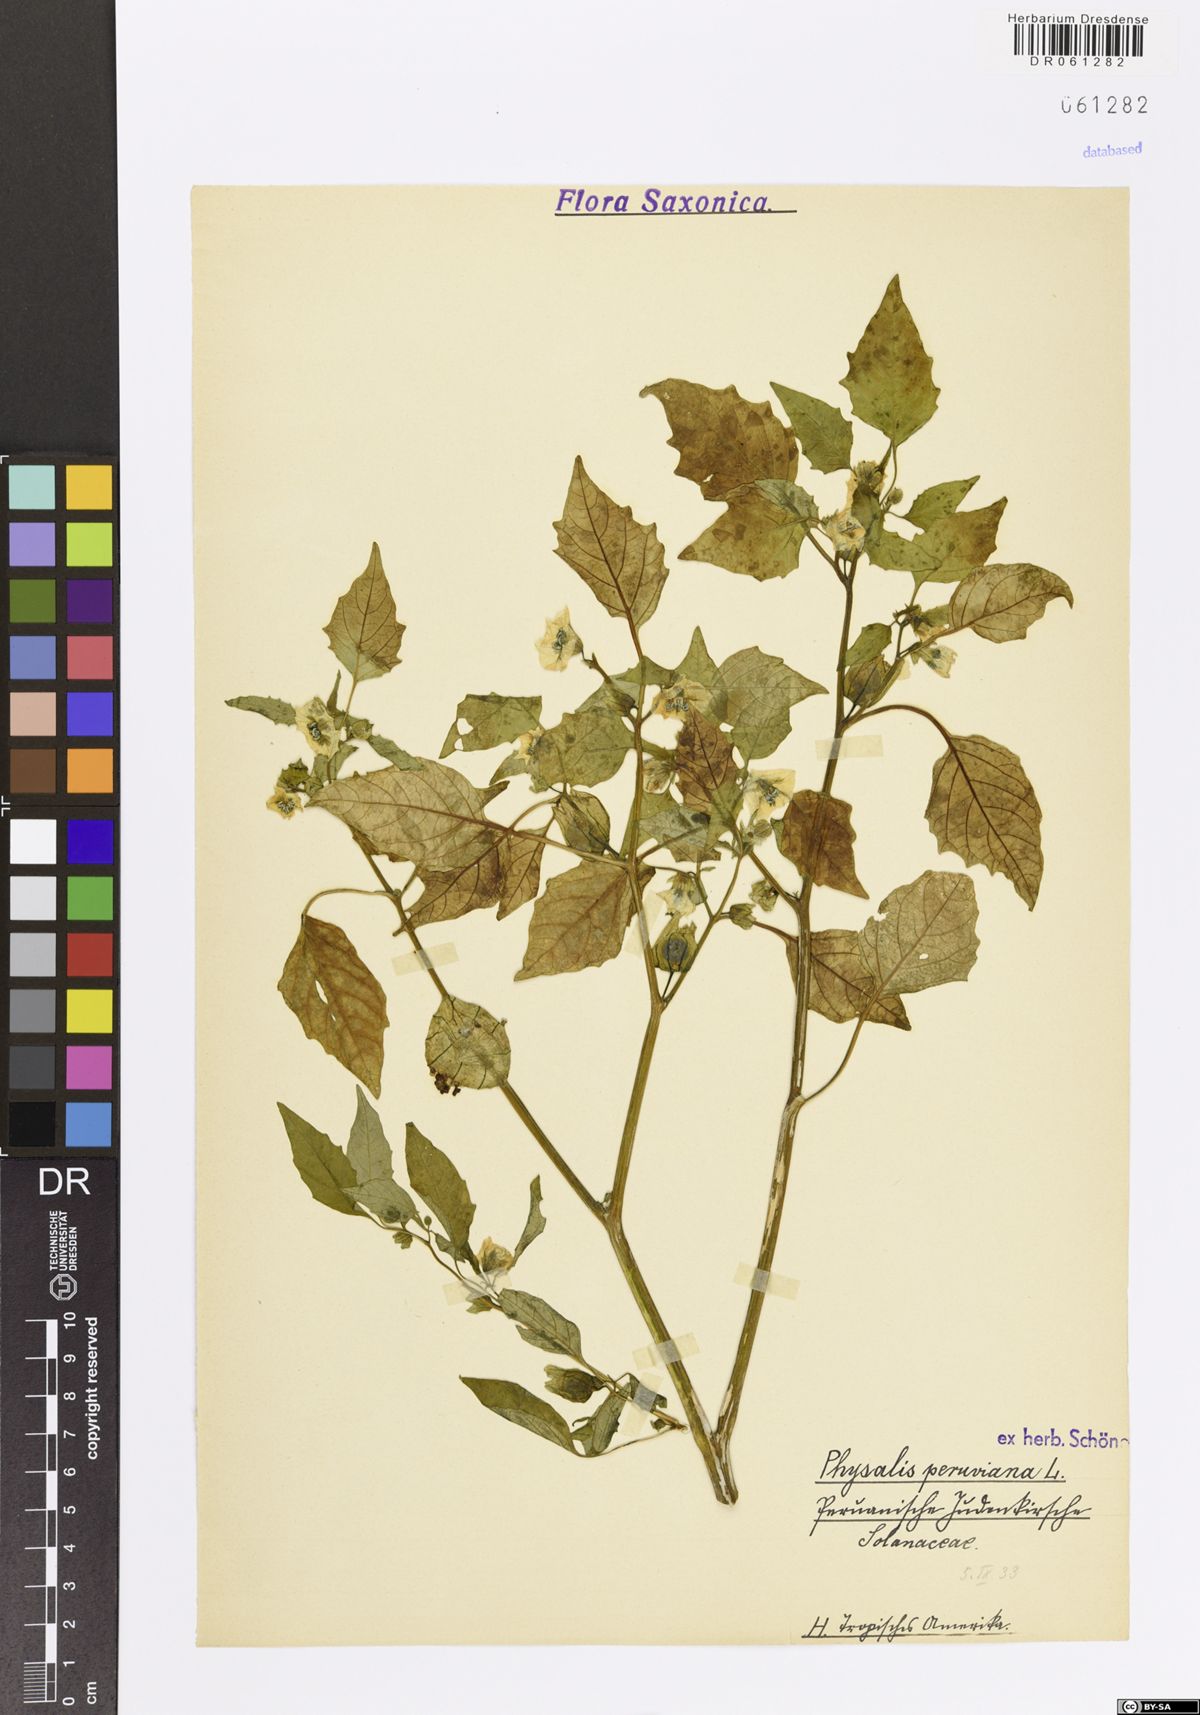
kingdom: Plantae
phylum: Tracheophyta
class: Magnoliopsida
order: Solanales
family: Solanaceae
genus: Physalis
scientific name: Physalis peruviana
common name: Cape-gooseberry
